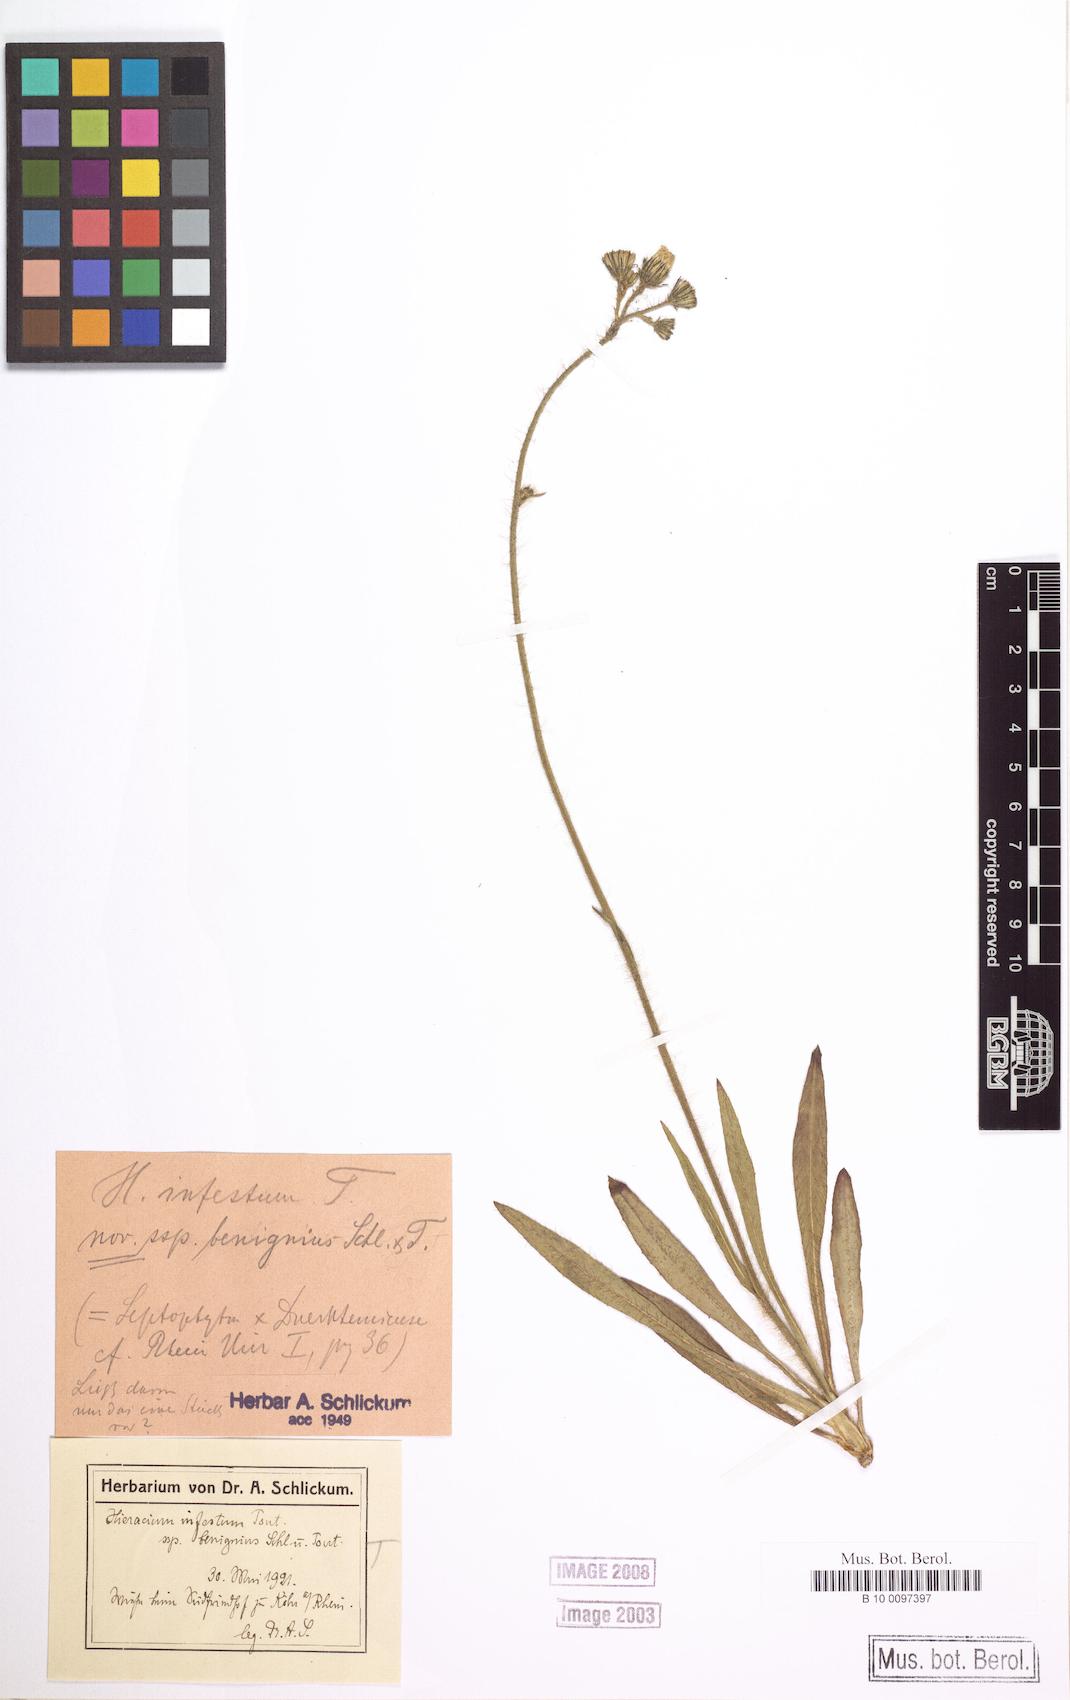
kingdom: Plantae
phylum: Tracheophyta
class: Magnoliopsida
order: Asterales
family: Asteraceae
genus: Pilosella
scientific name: Pilosella visianii
